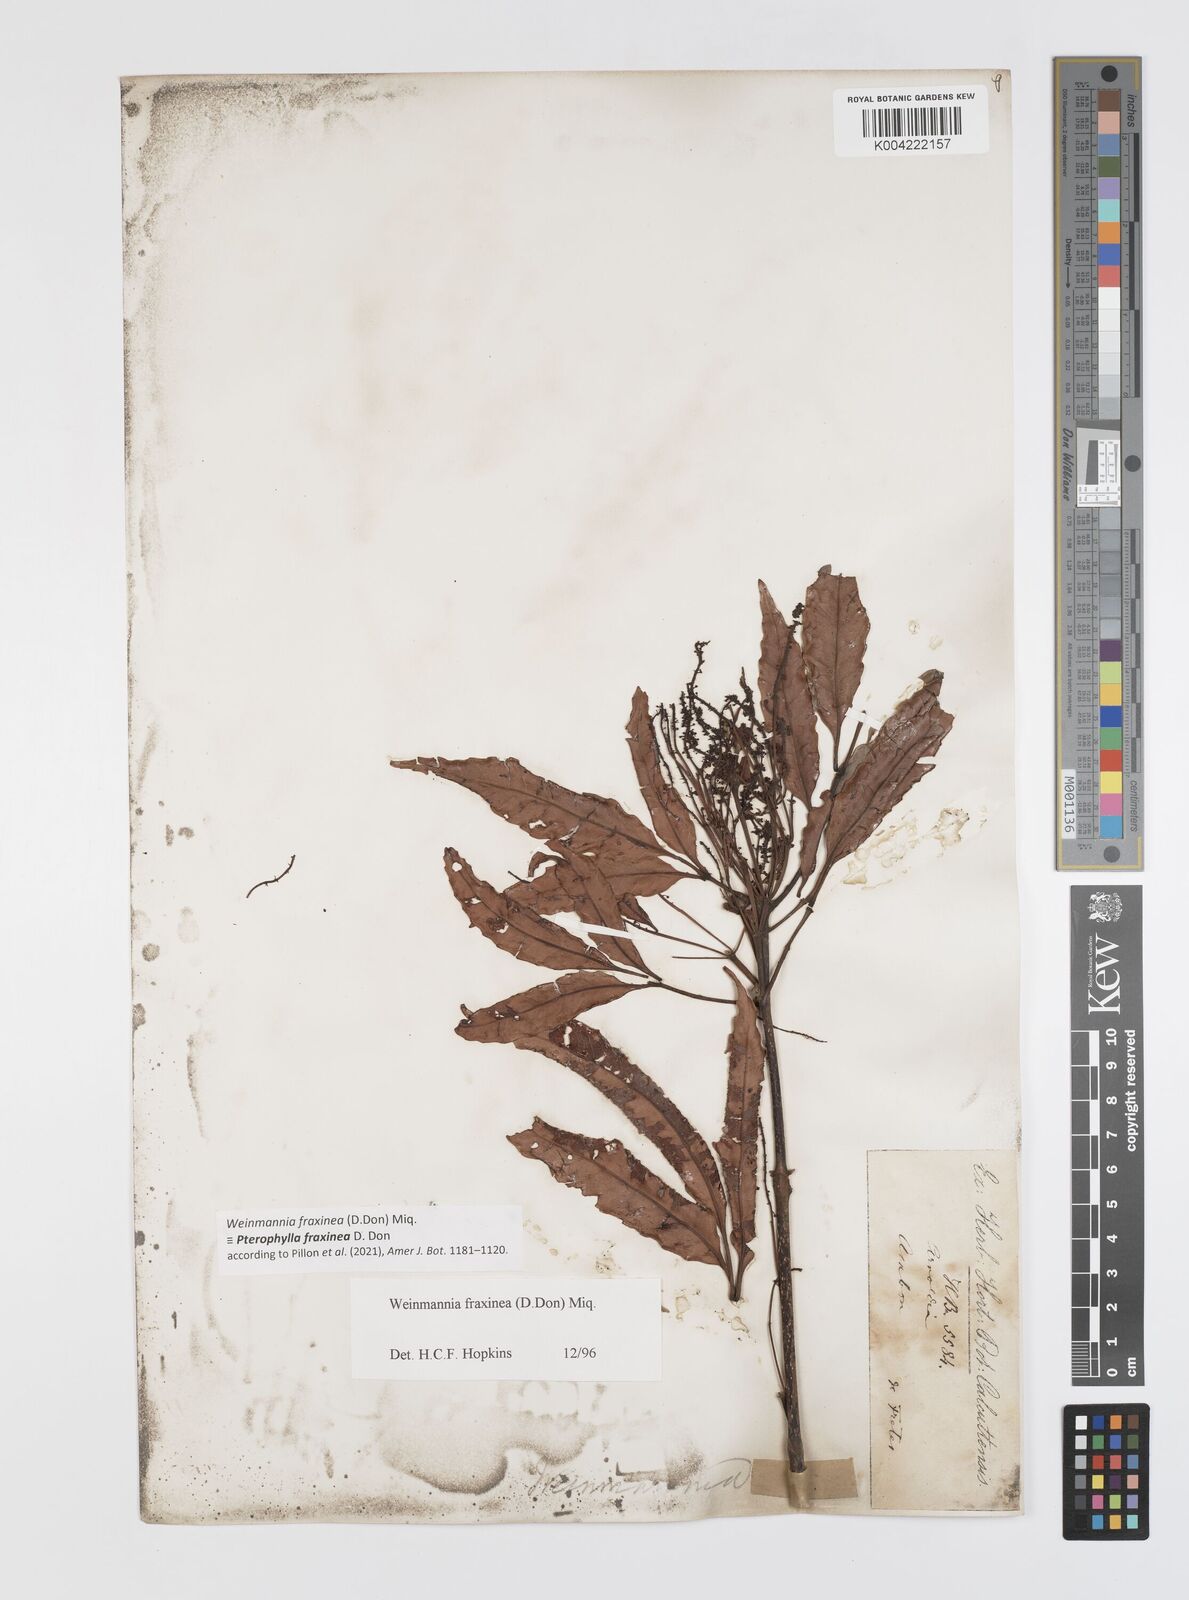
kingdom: Plantae
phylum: Tracheophyta
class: Magnoliopsida
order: Oxalidales
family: Cunoniaceae
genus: Pterophylla
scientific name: Pterophylla fraxinea
